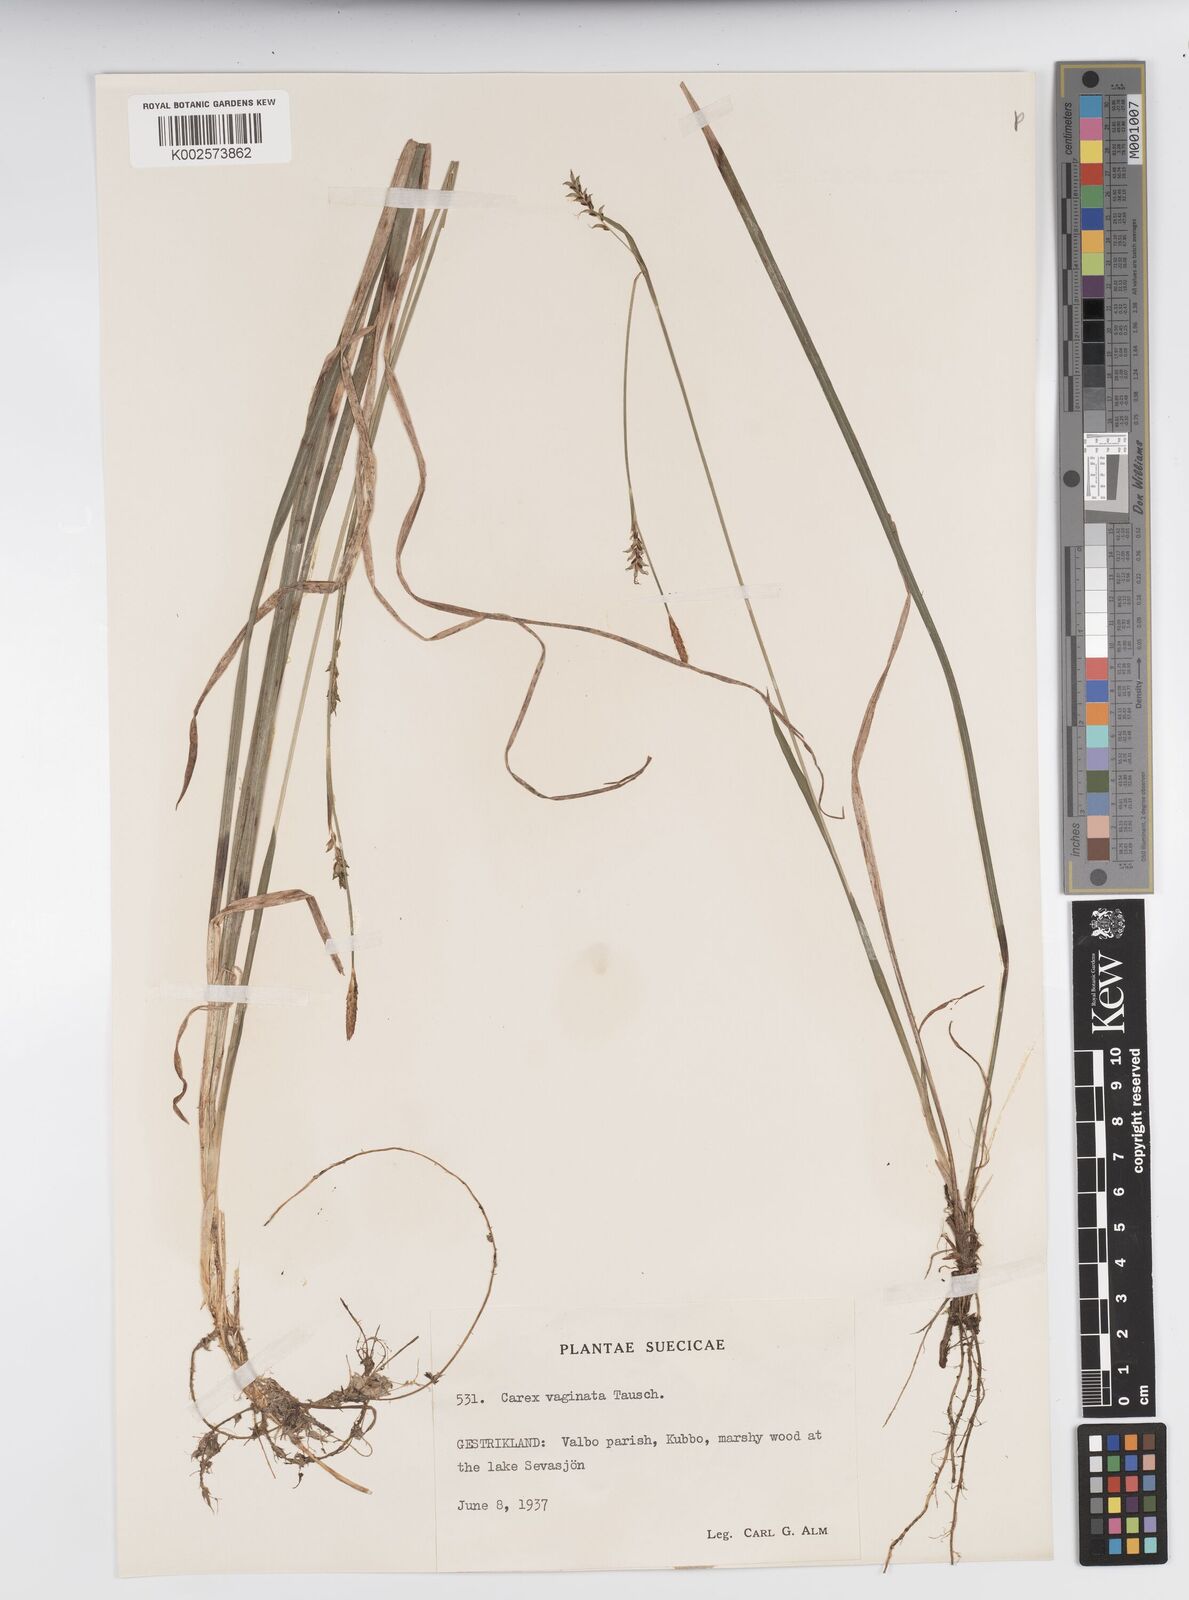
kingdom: Plantae
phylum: Tracheophyta
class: Liliopsida
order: Poales
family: Cyperaceae
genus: Carex
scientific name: Carex vaginata
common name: Sheathed sedge
